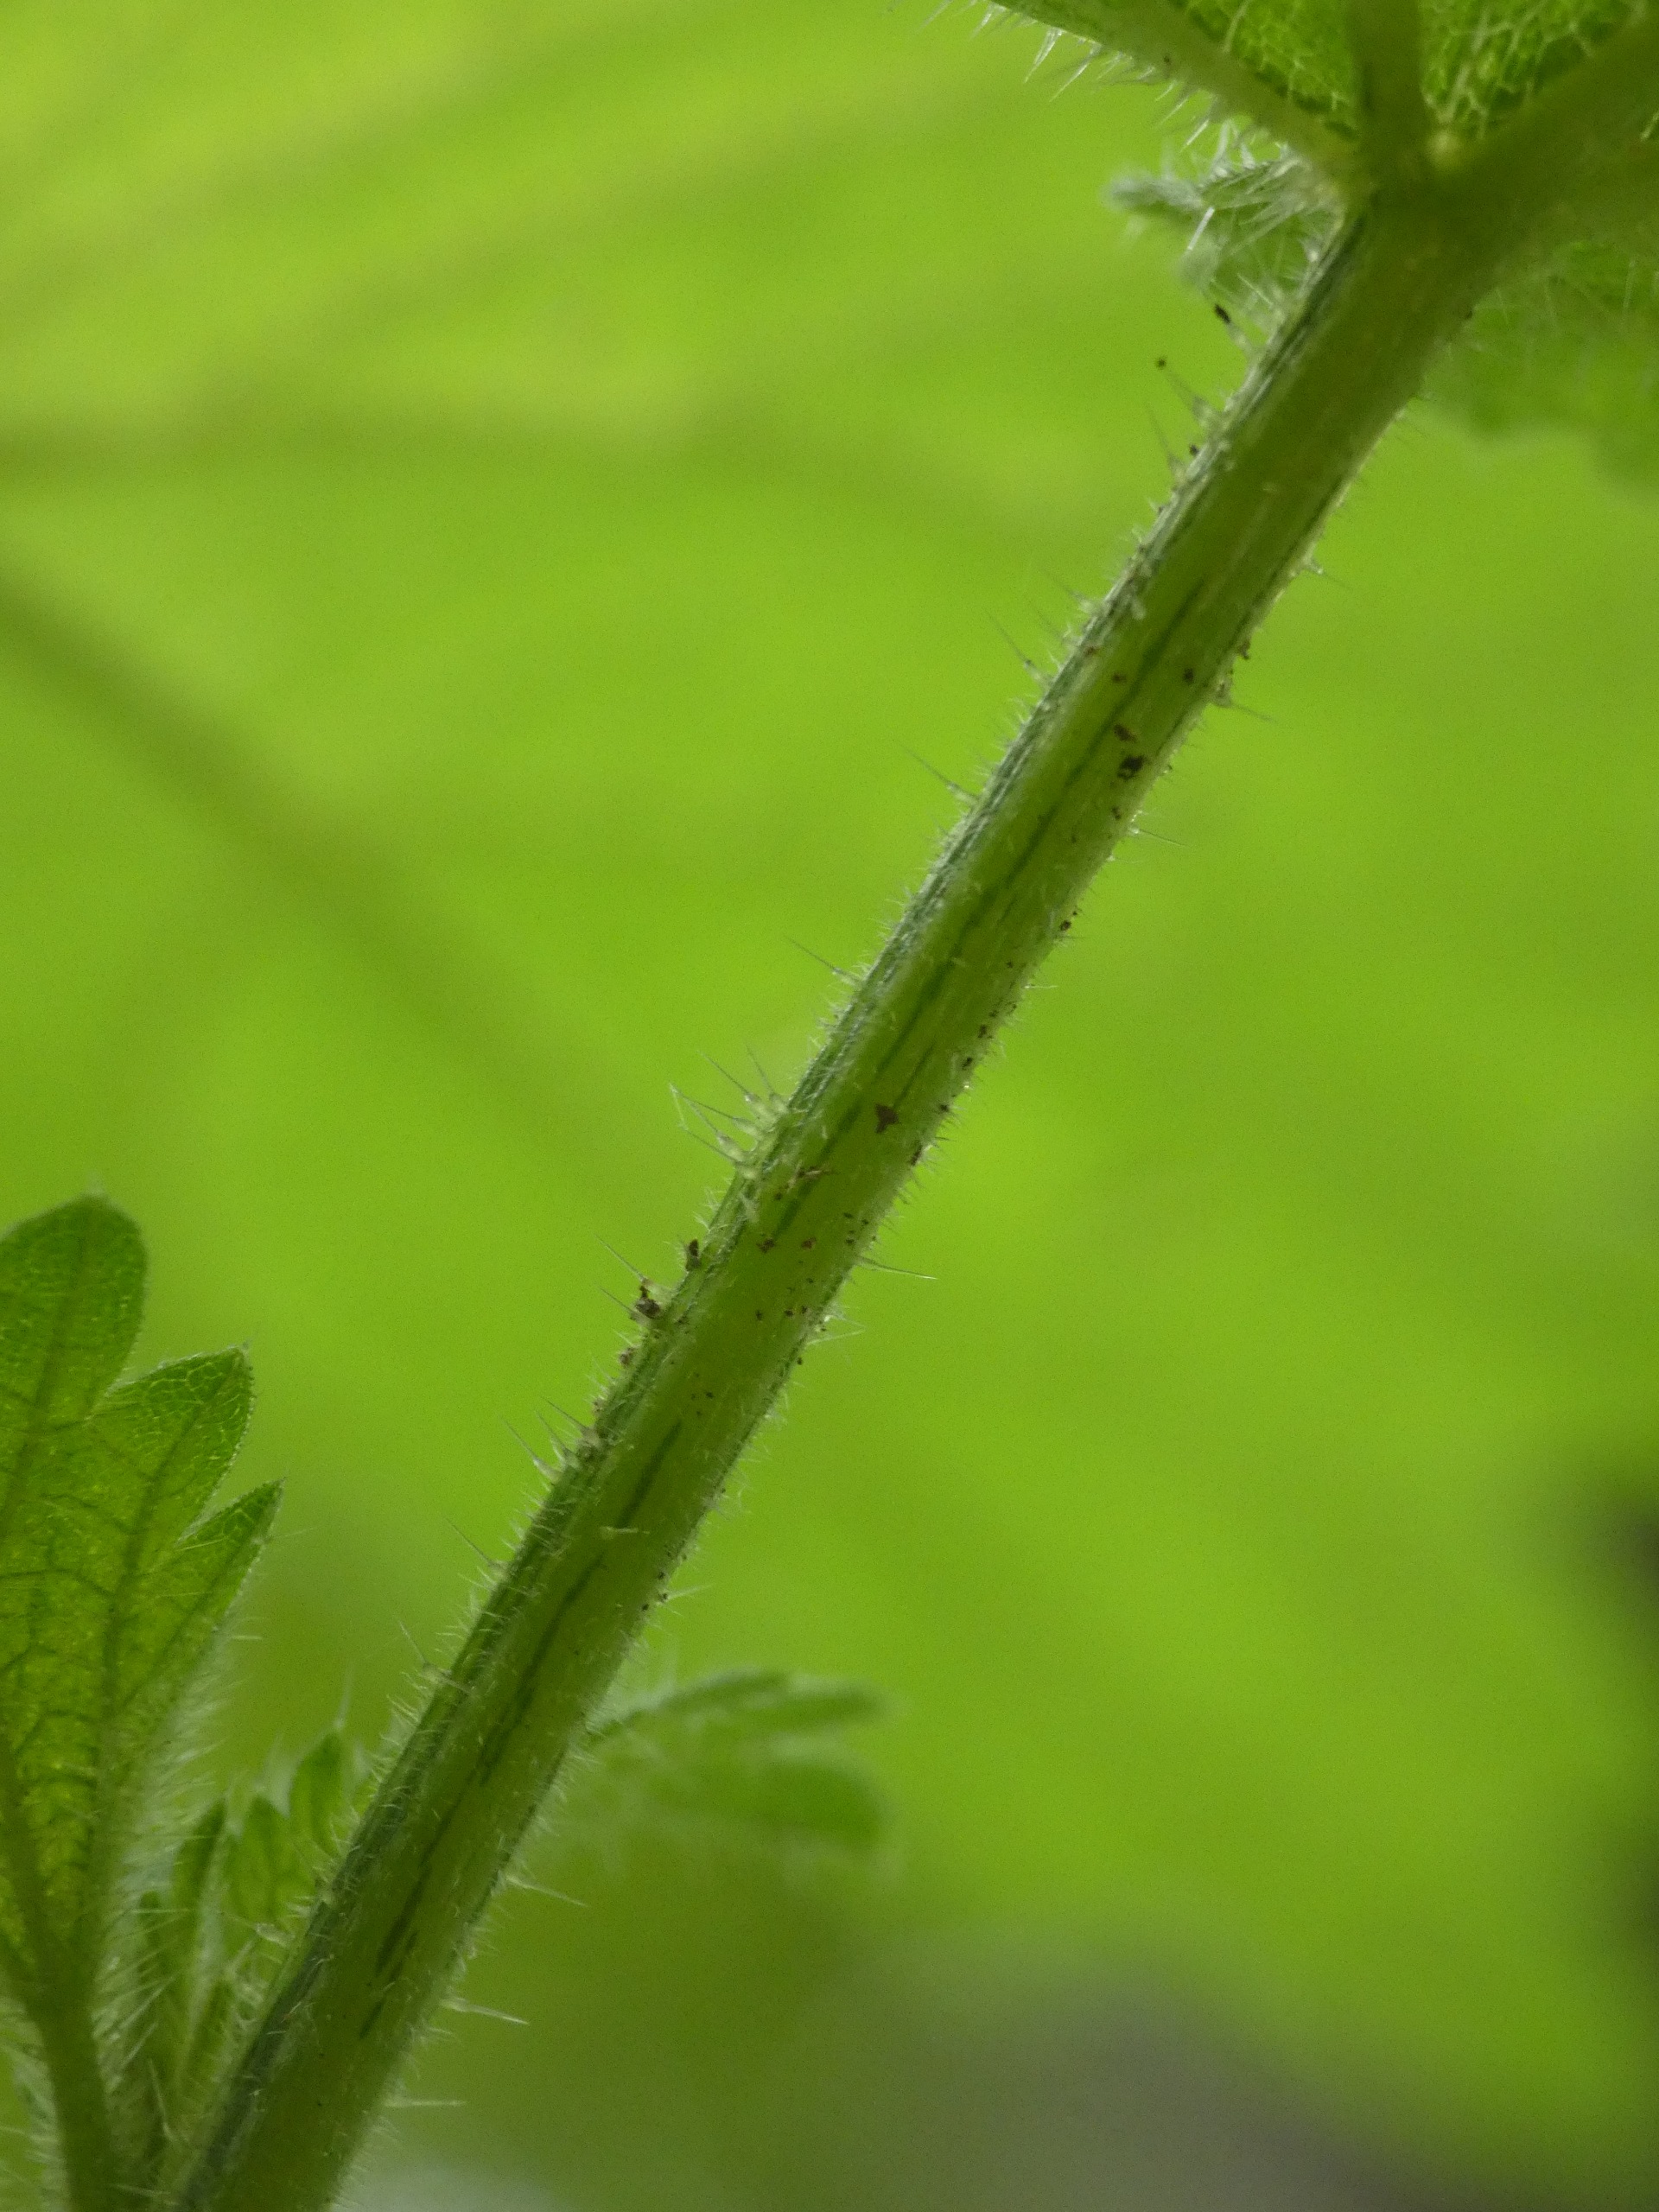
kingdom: Plantae
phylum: Tracheophyta
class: Magnoliopsida
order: Rosales
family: Urticaceae
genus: Urtica
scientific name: Urtica dioica
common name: Stor nælde
